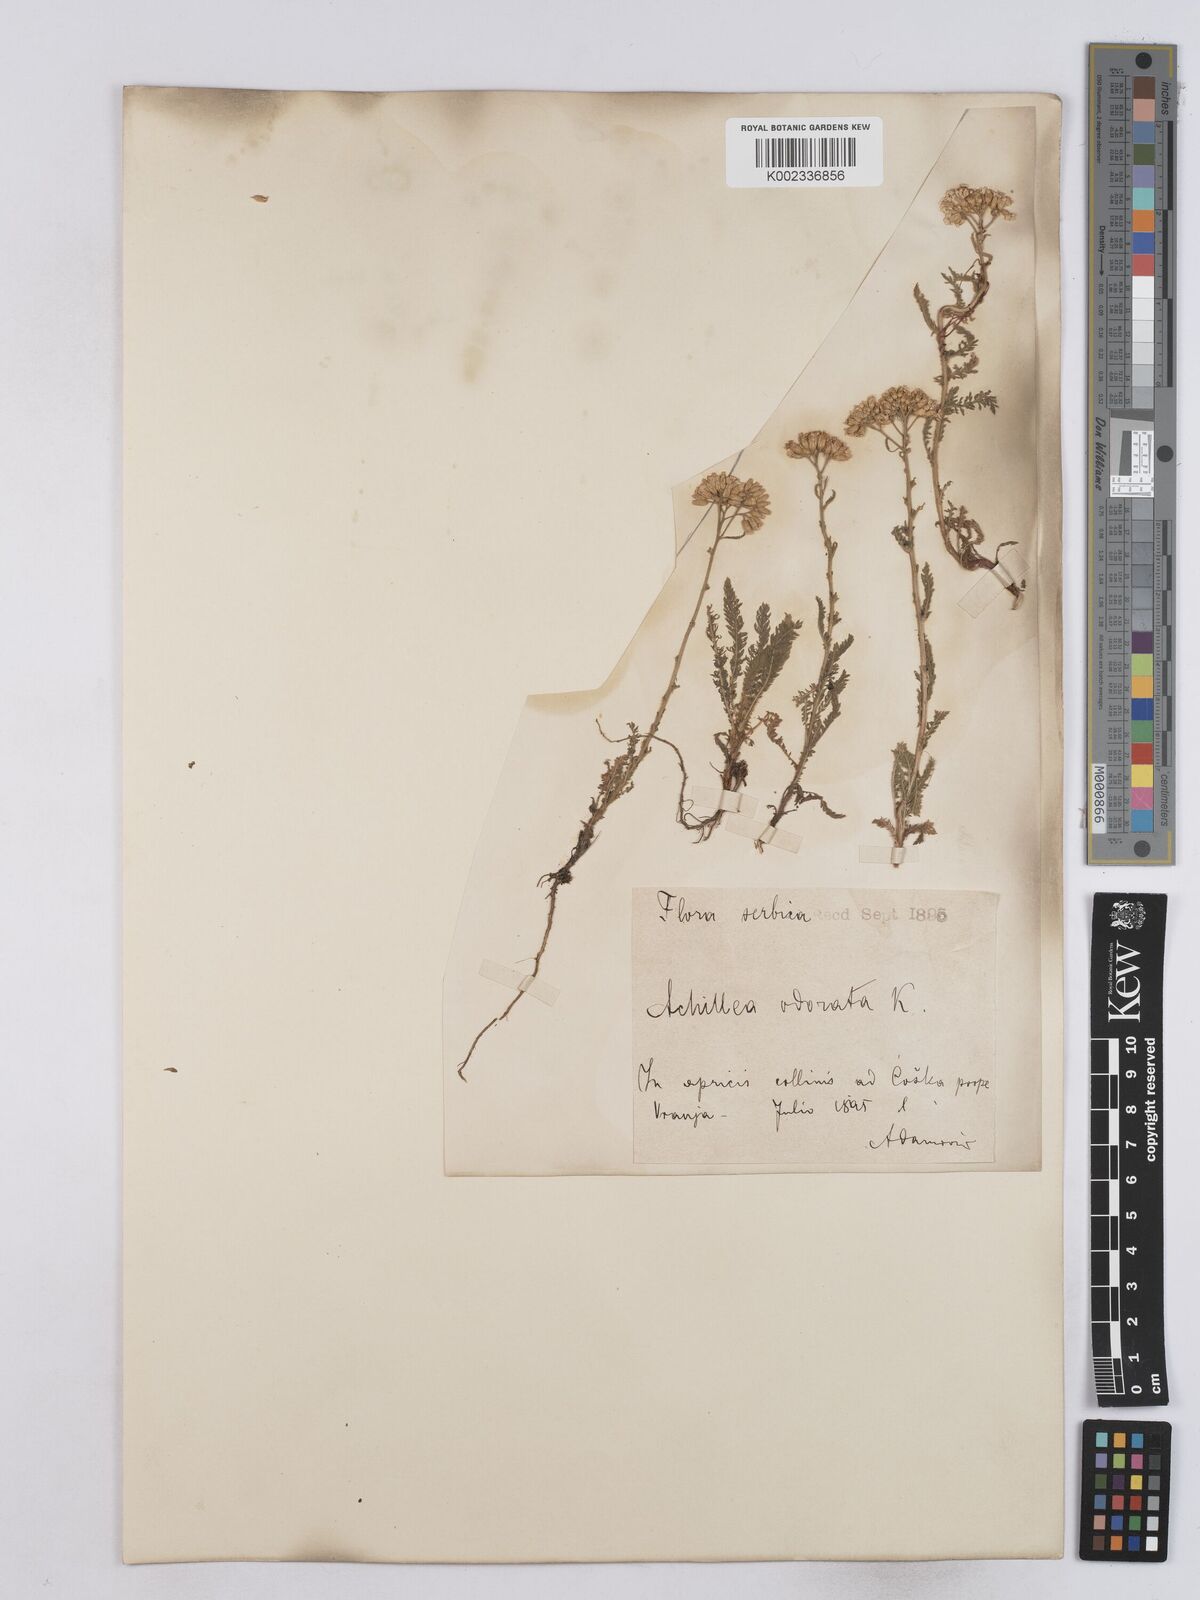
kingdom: Plantae
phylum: Tracheophyta
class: Magnoliopsida
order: Asterales
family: Asteraceae
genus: Achillea
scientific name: Achillea crithmifolia
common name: Yarrow
